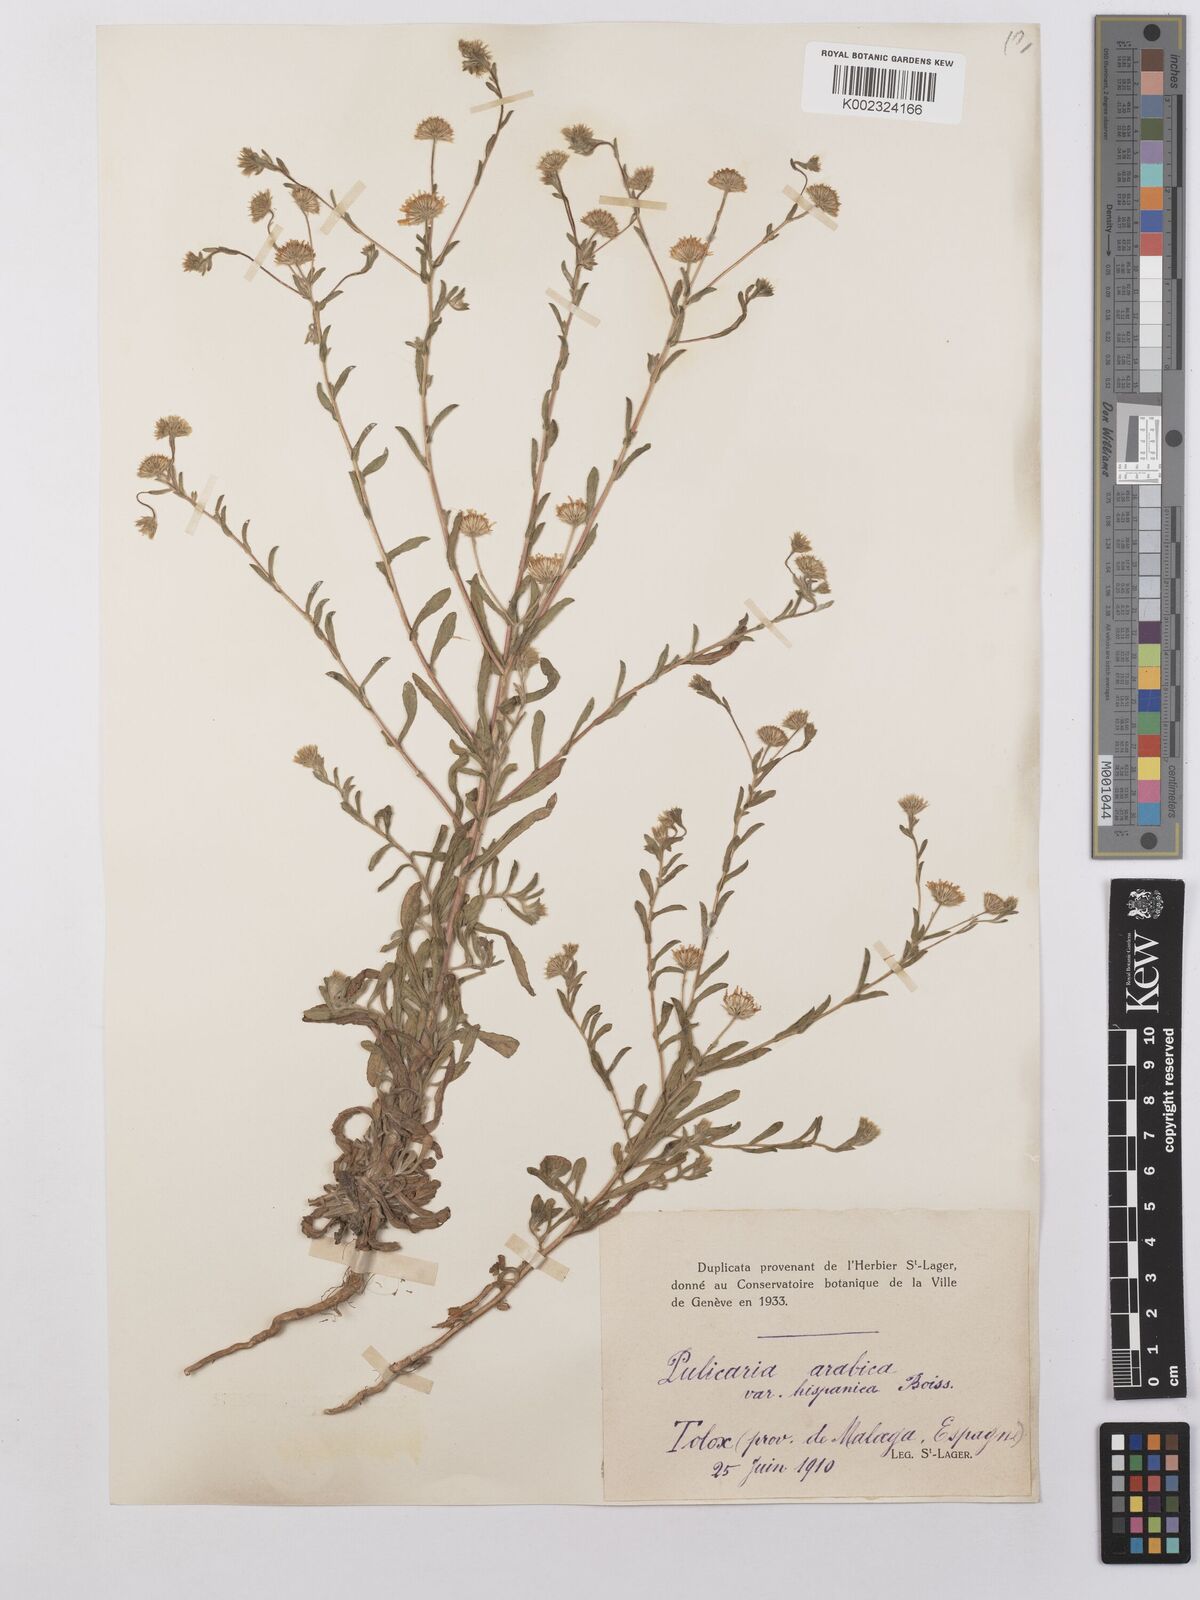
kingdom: Plantae
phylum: Tracheophyta
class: Magnoliopsida
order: Asterales
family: Asteraceae
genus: Pulicaria
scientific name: Pulicaria
